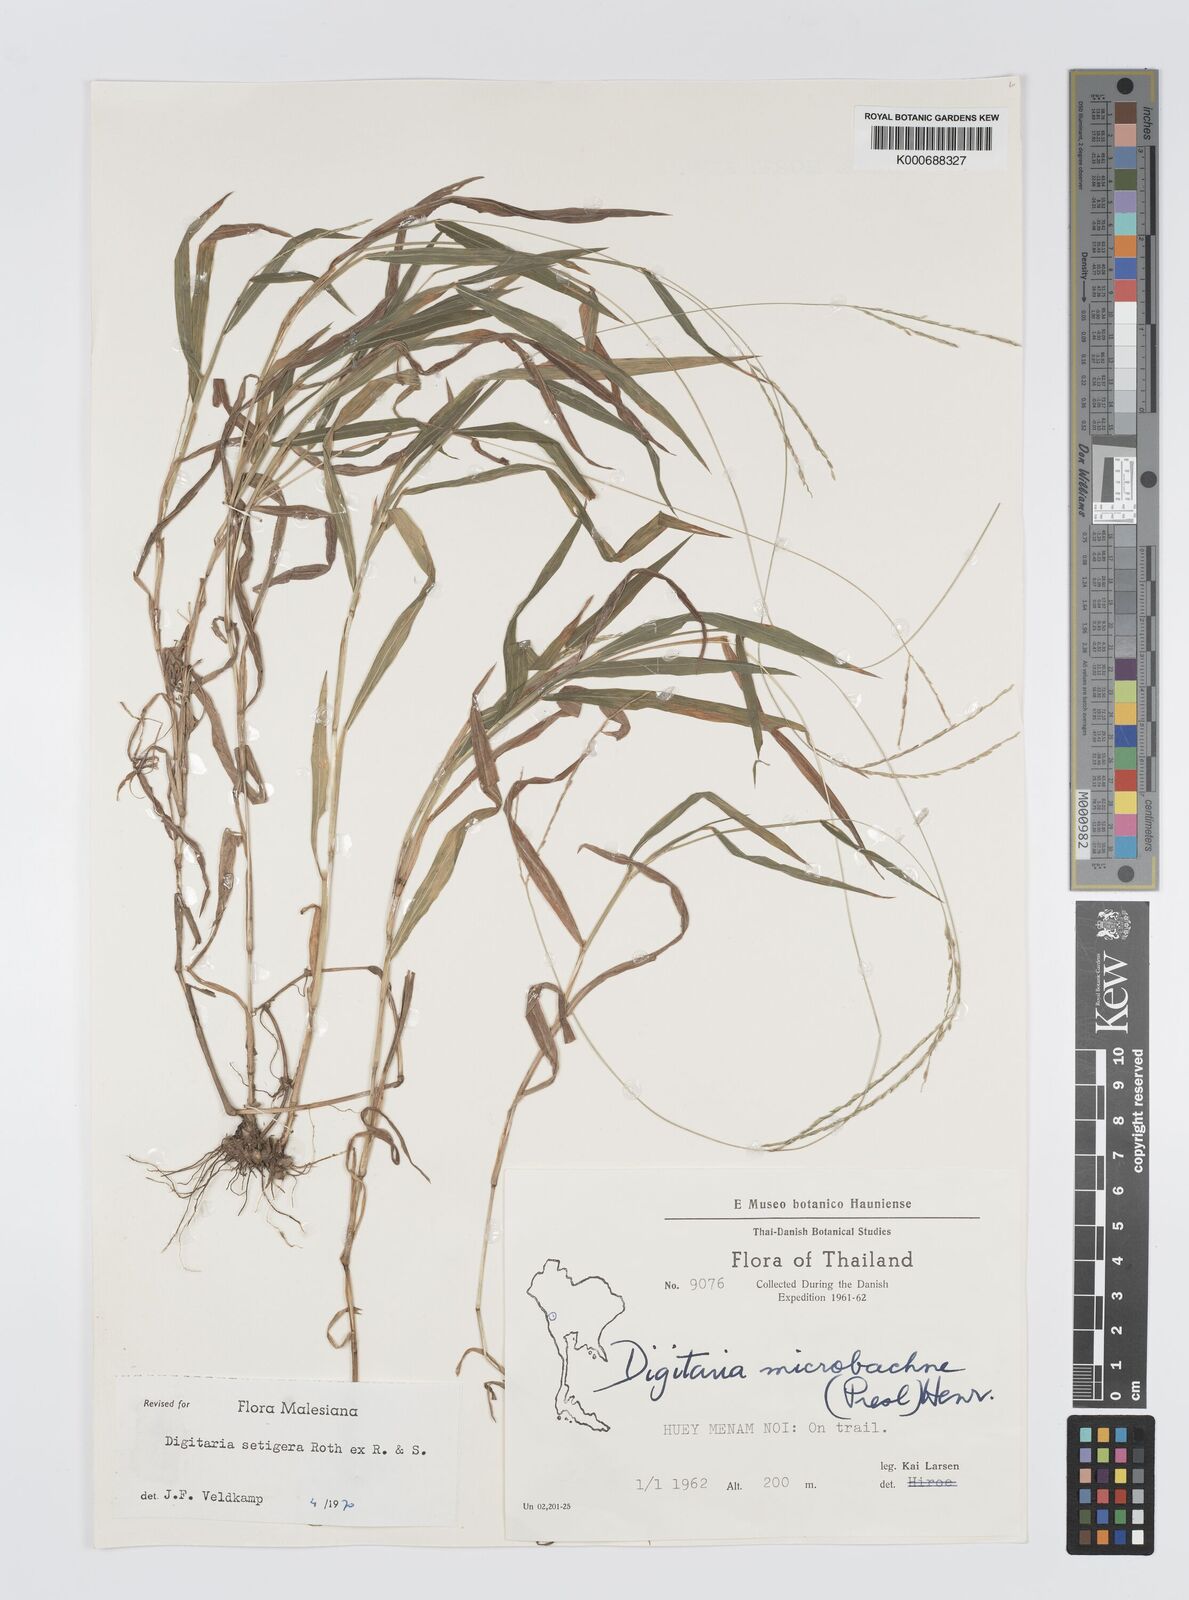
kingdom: Plantae
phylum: Tracheophyta
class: Liliopsida
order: Poales
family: Poaceae
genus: Digitaria
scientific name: Digitaria
